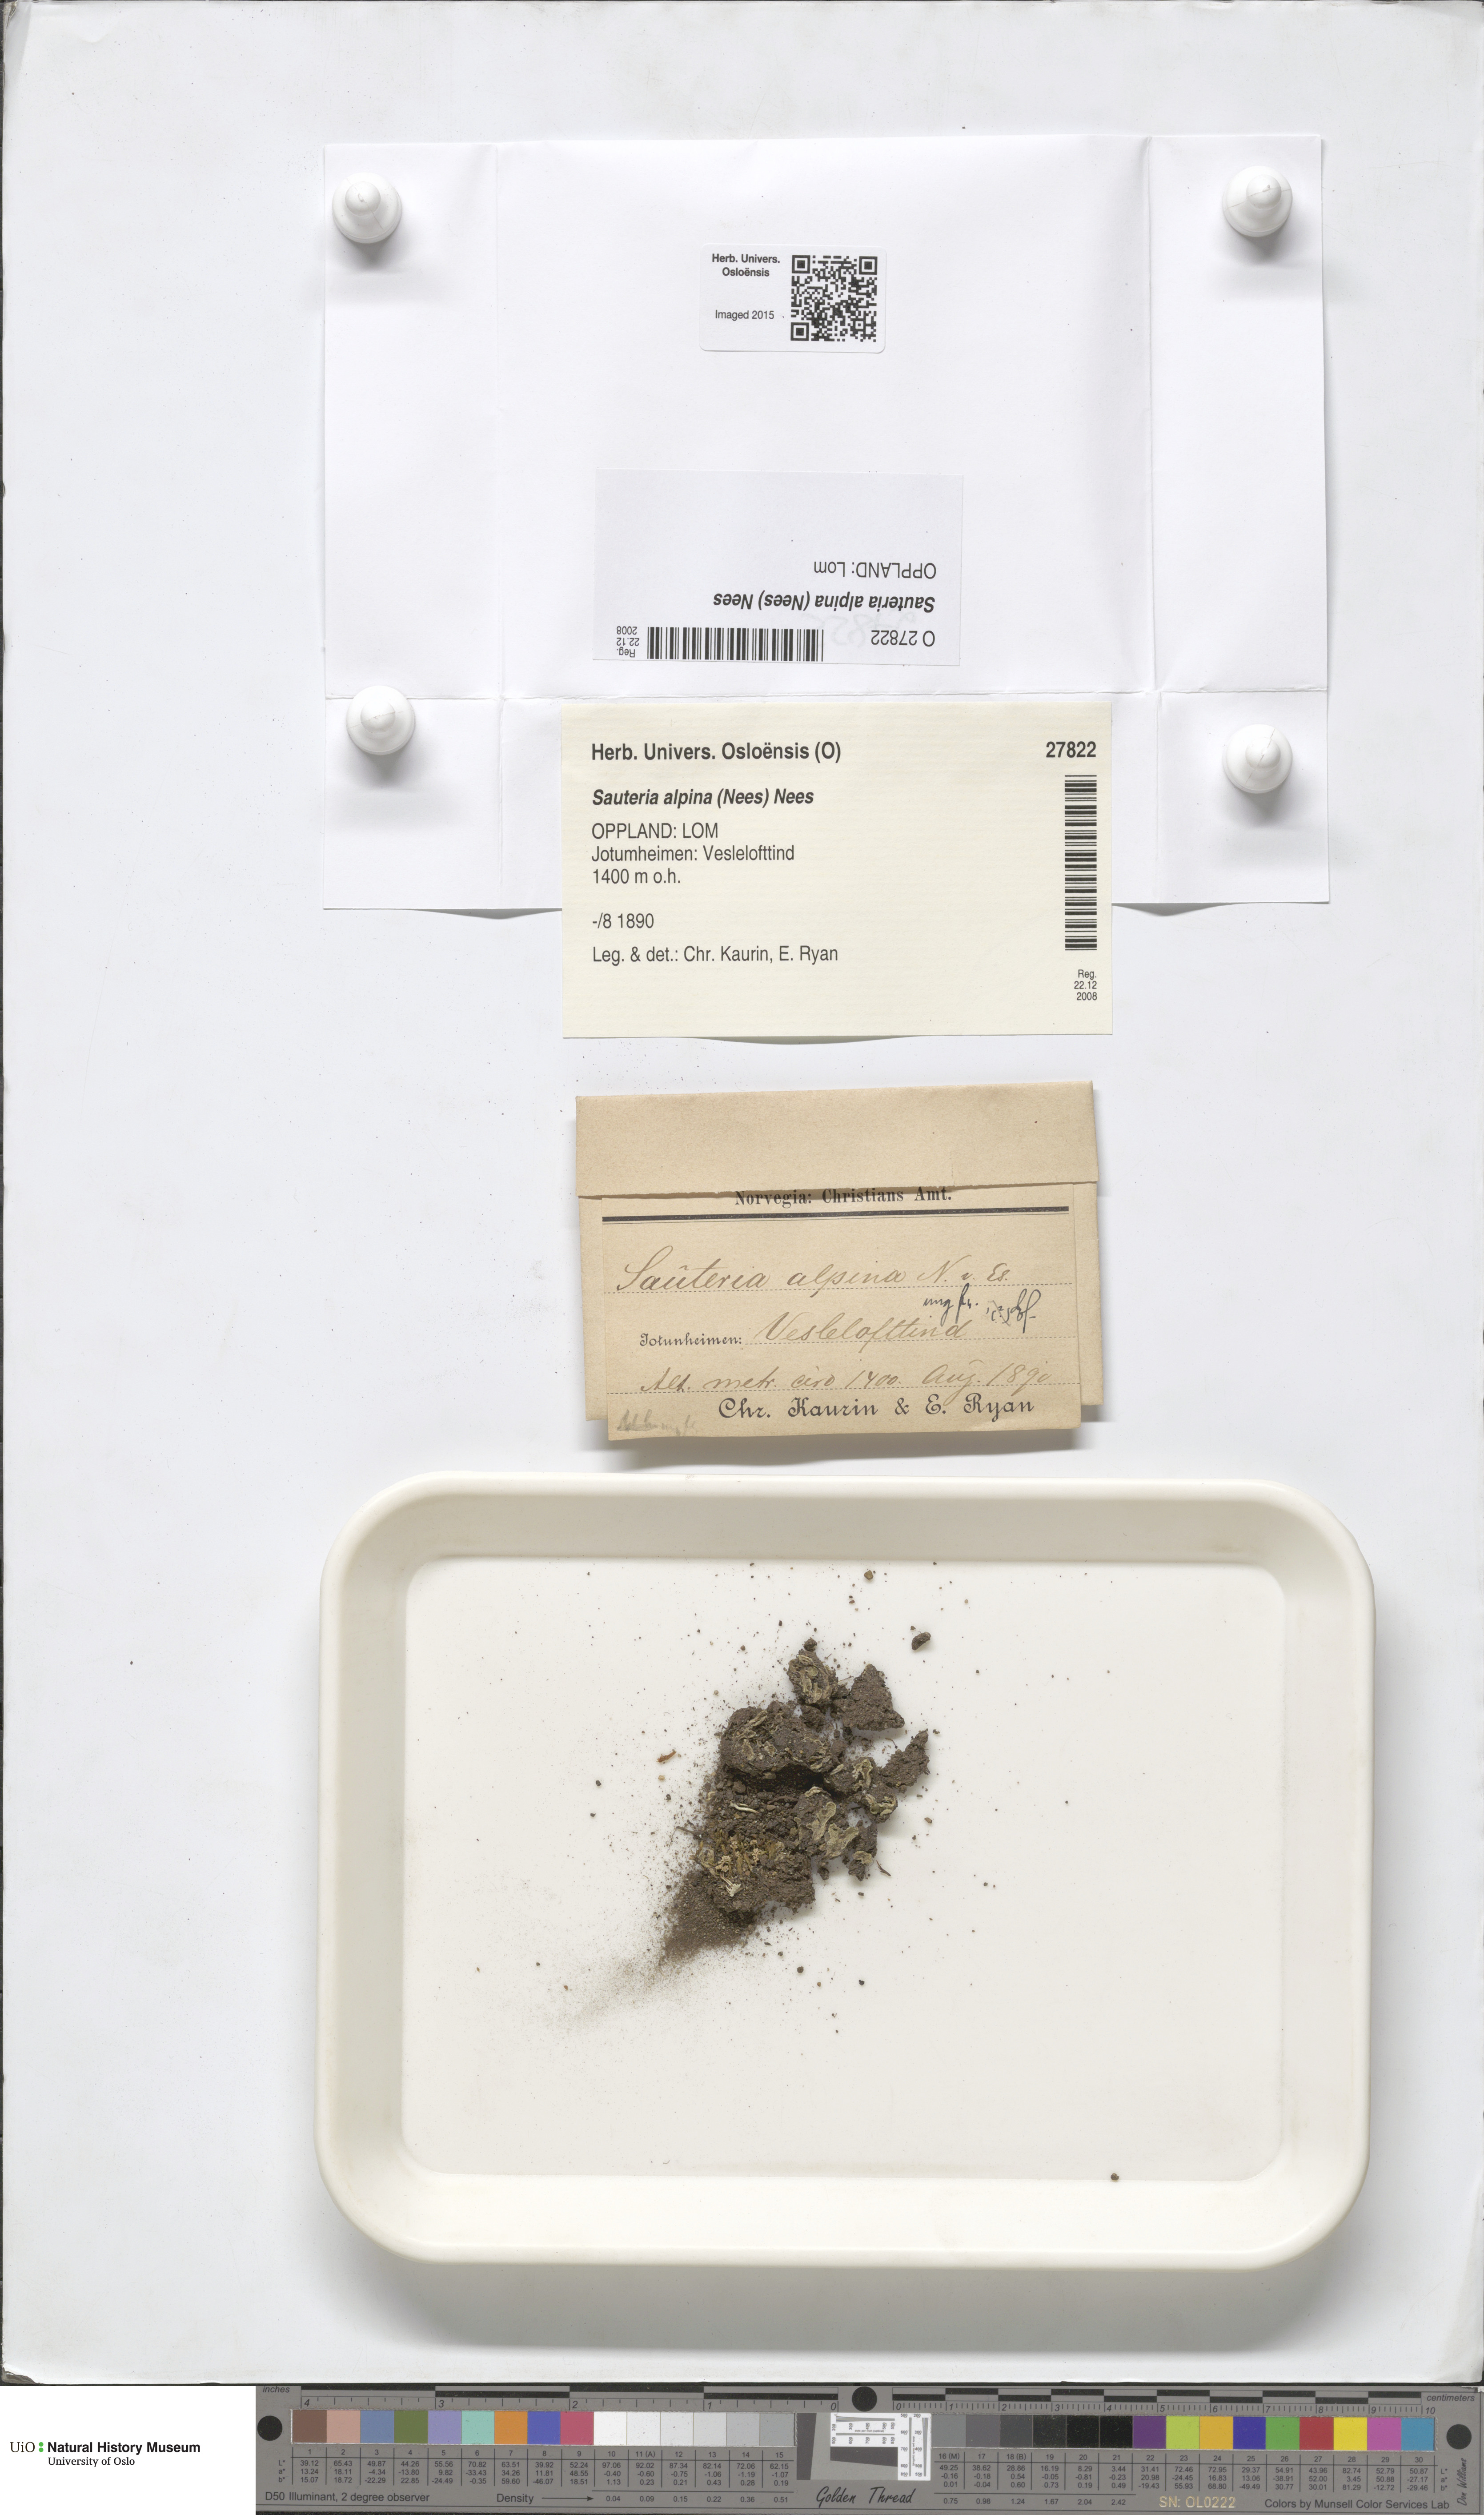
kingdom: Plantae
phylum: Marchantiophyta
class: Marchantiopsida
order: Marchantiales
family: Cleveaceae
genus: Sauteria
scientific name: Sauteria alpina
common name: Snow lungwort
